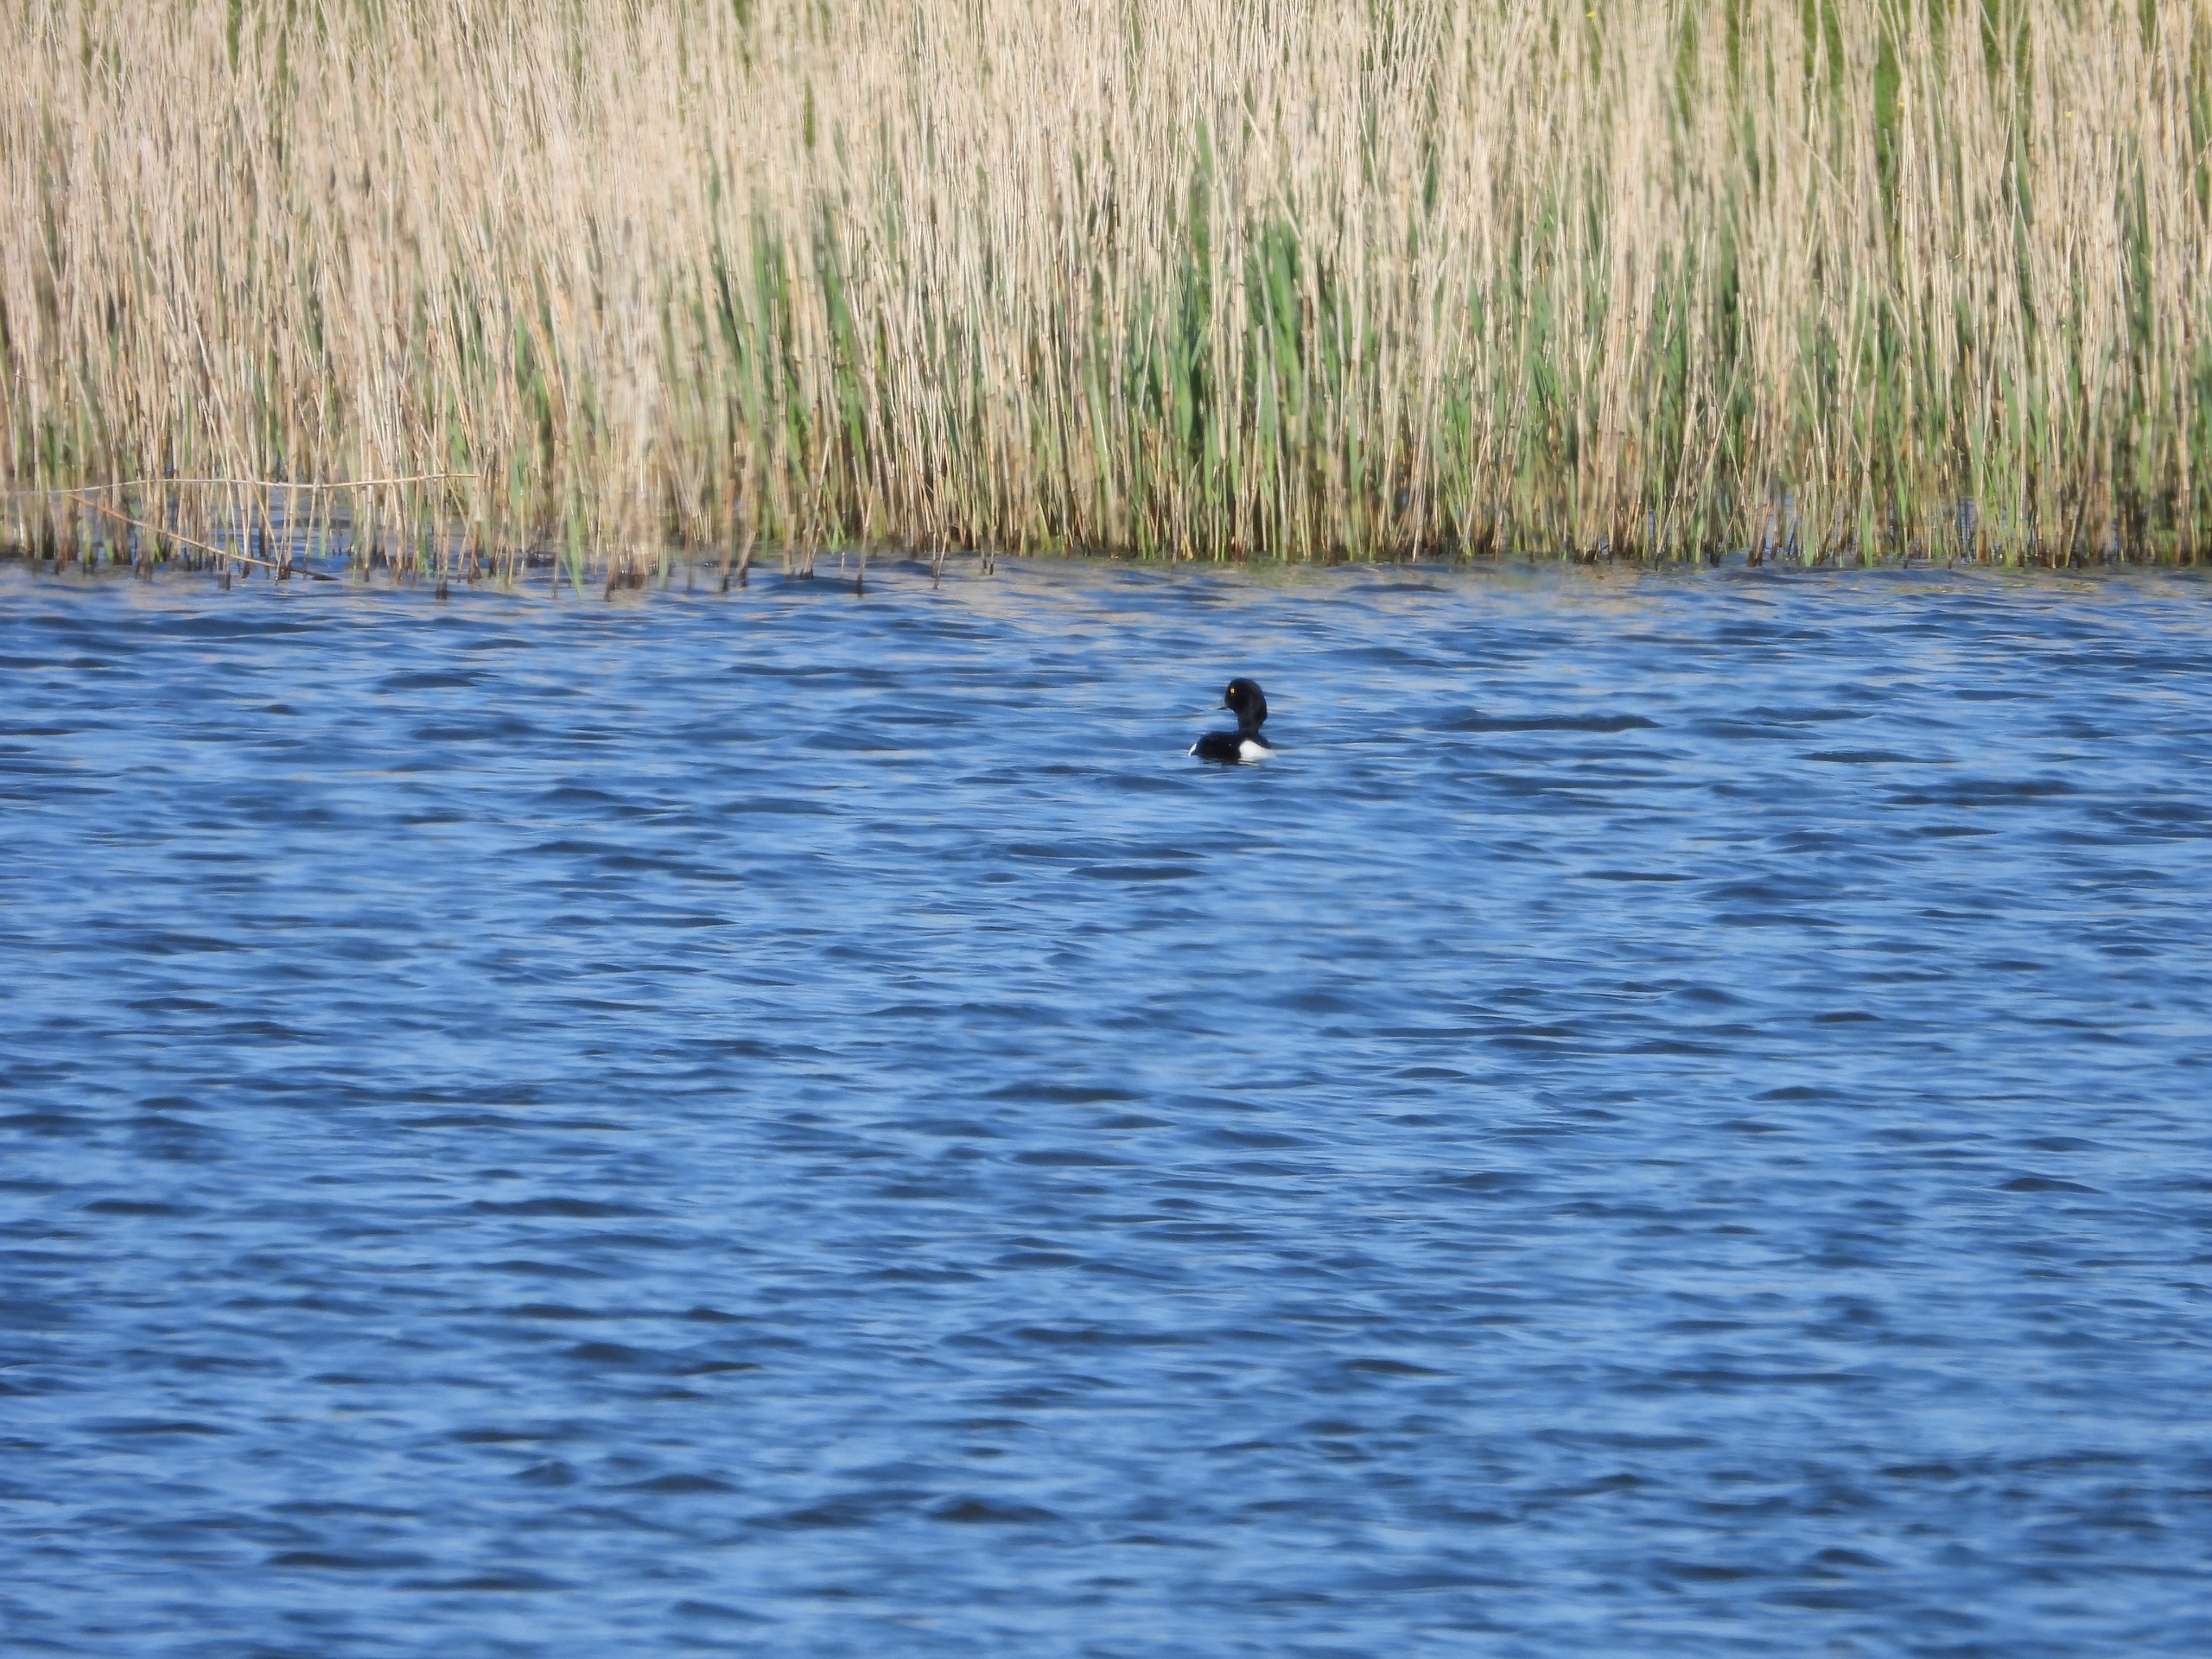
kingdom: Animalia
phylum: Chordata
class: Aves
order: Anseriformes
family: Anatidae
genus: Aythya
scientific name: Aythya fuligula
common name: Troldand
